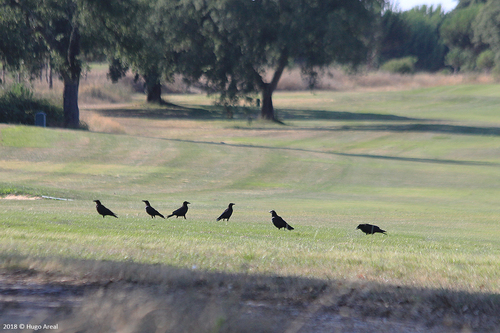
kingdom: Animalia
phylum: Chordata
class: Aves
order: Passeriformes
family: Corvidae
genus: Corvus
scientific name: Corvus corone
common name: Carrion crow
